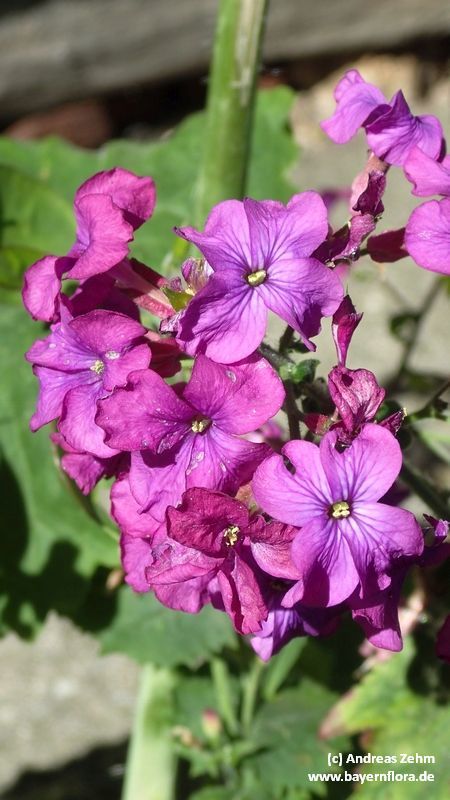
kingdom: Plantae
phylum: Tracheophyta
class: Magnoliopsida
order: Brassicales
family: Brassicaceae
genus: Lunaria
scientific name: Lunaria annua
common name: Honesty
